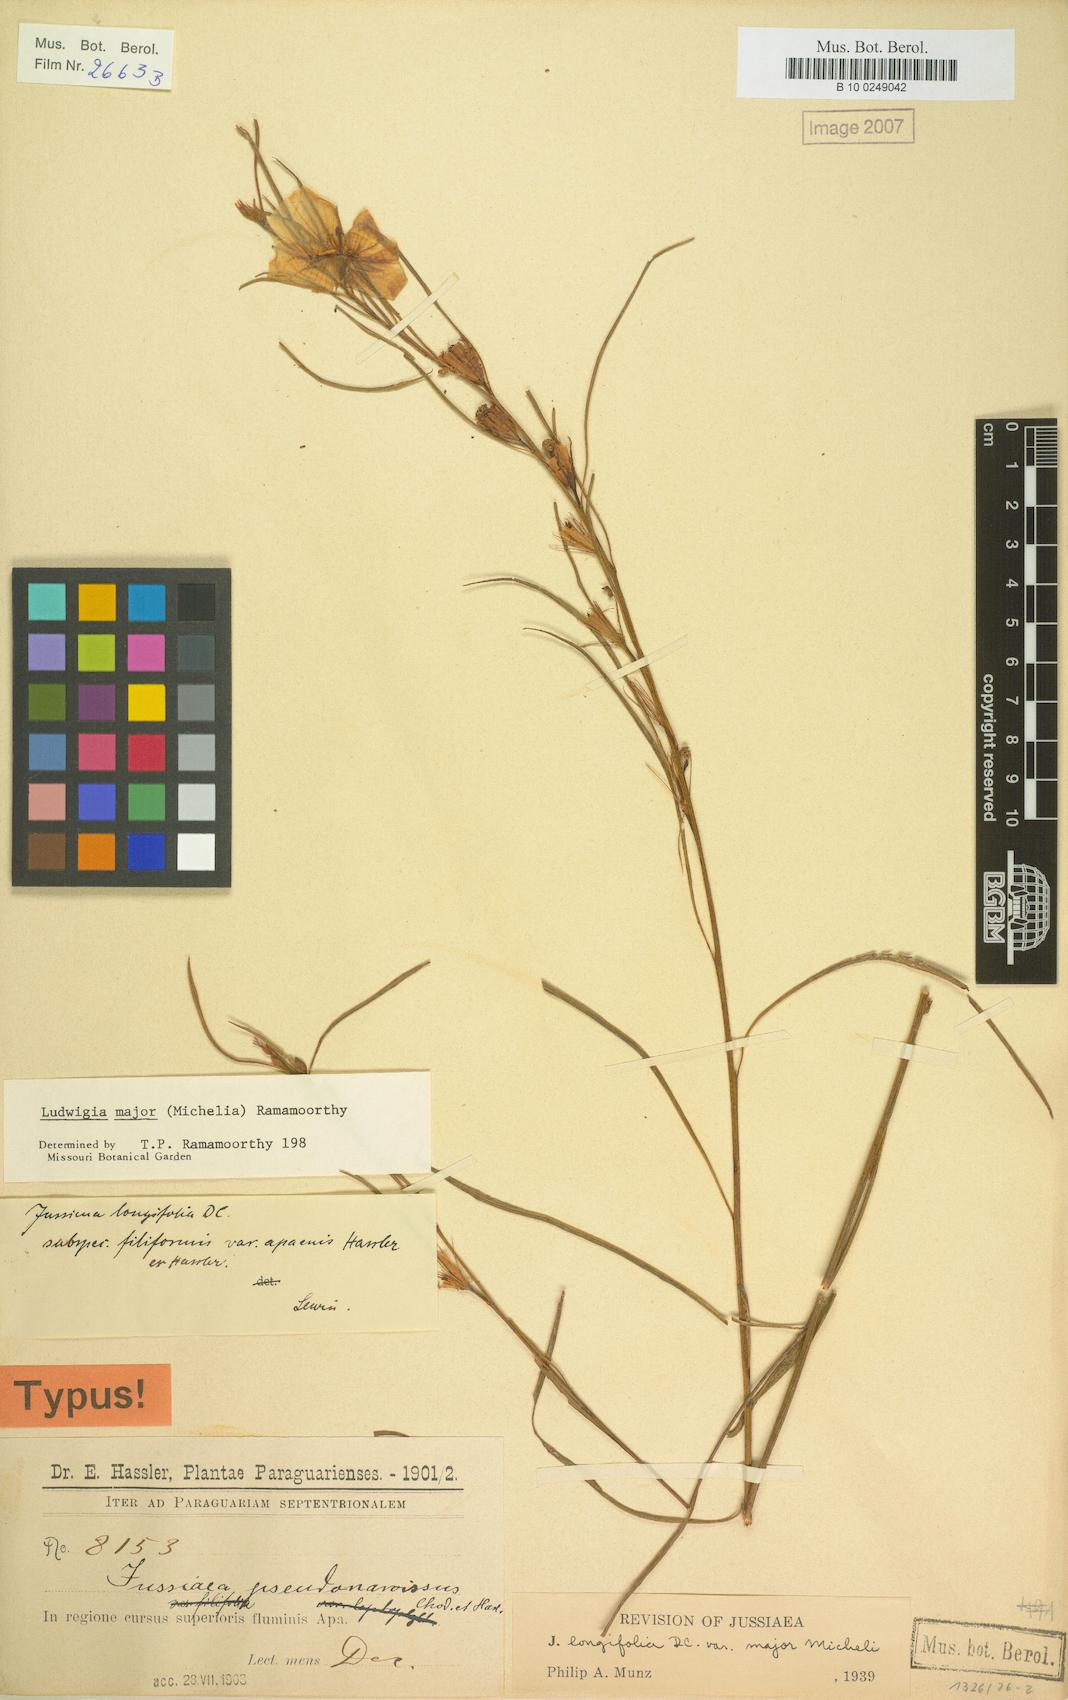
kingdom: Plantae
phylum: Tracheophyta
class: Magnoliopsida
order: Myrtales
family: Onagraceae
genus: Ludwigia
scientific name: Ludwigia major
